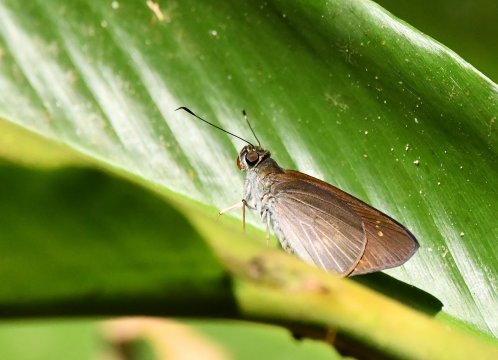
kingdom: Animalia
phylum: Arthropoda
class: Insecta
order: Lepidoptera
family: Hesperiidae
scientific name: Hesperiidae
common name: Skippers
